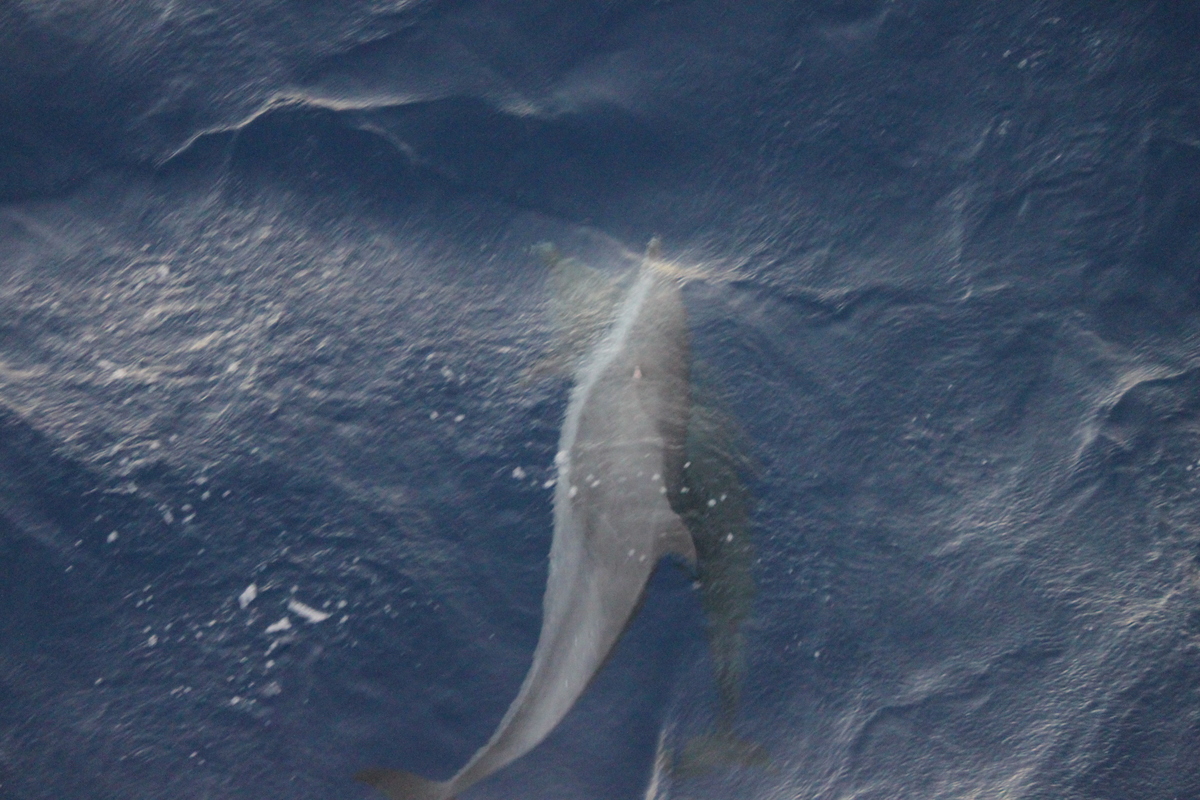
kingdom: Animalia
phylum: Chordata
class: Mammalia
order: Cetacea
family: Delphinidae
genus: Stenella
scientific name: Stenella attenuata
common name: Pantropical Spotted Dolphin
